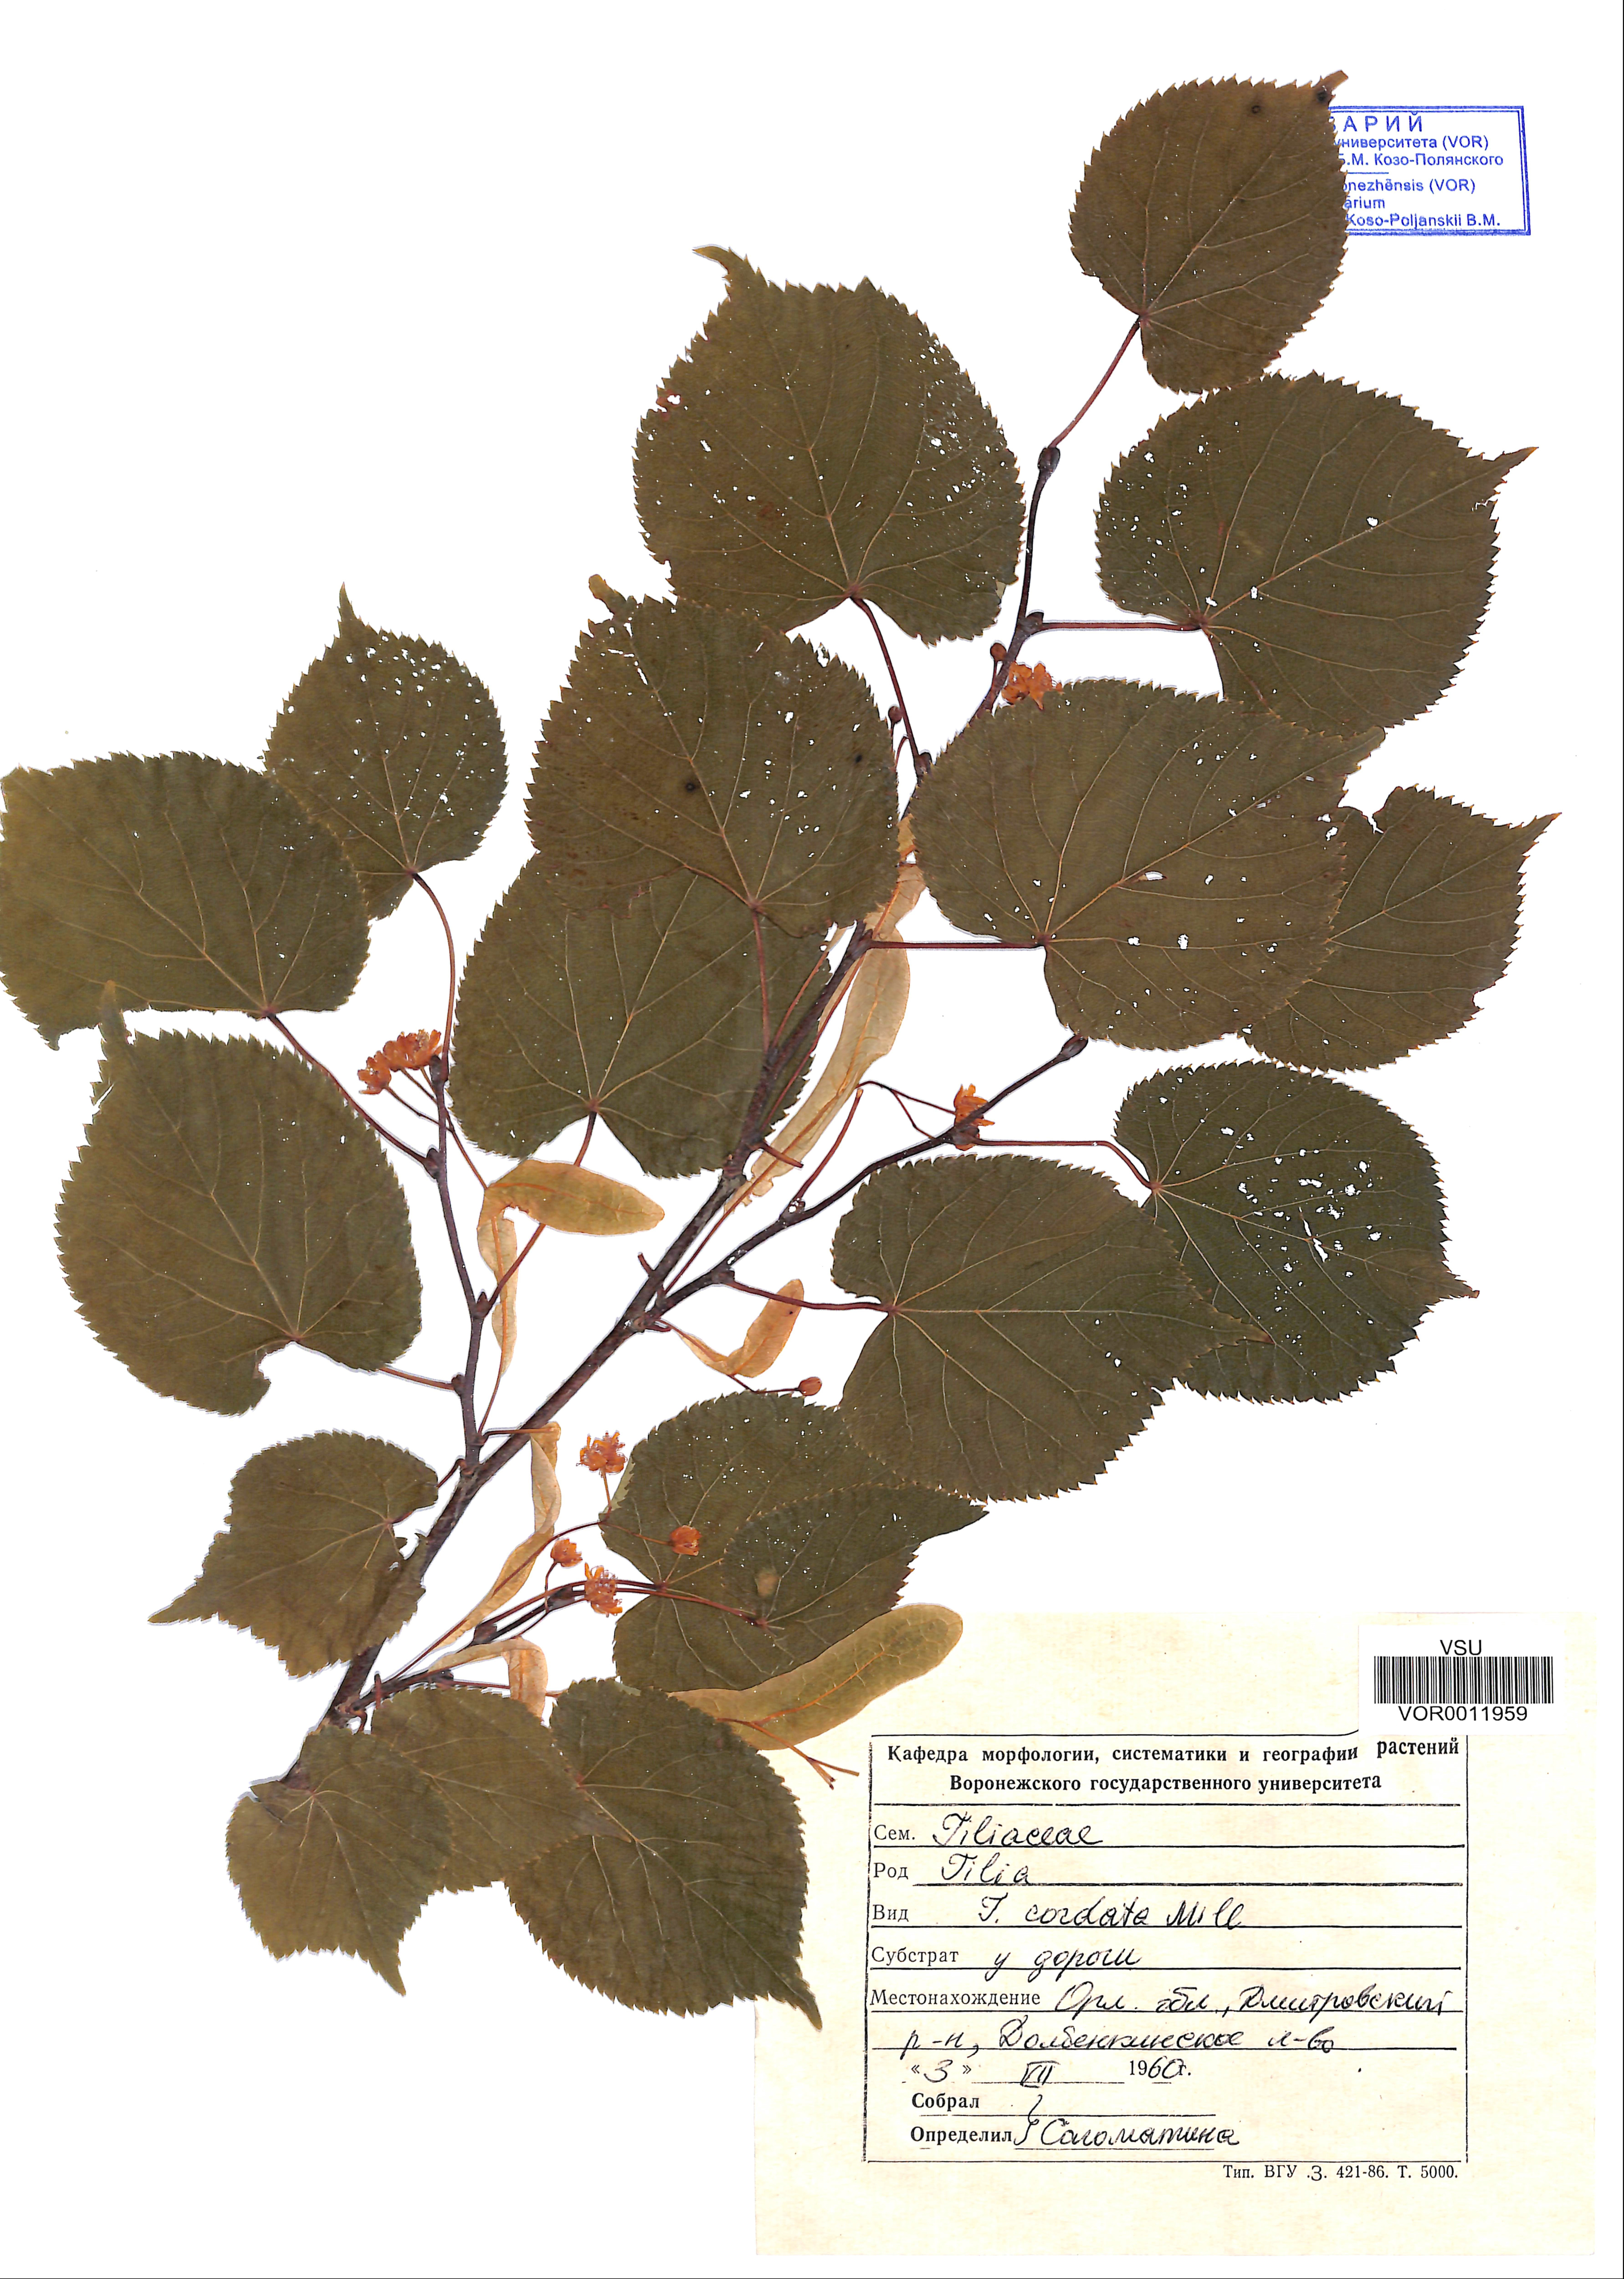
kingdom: Plantae
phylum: Tracheophyta
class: Magnoliopsida
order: Malvales
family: Malvaceae
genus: Tilia
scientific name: Tilia cordata
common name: Small-leaved lime
